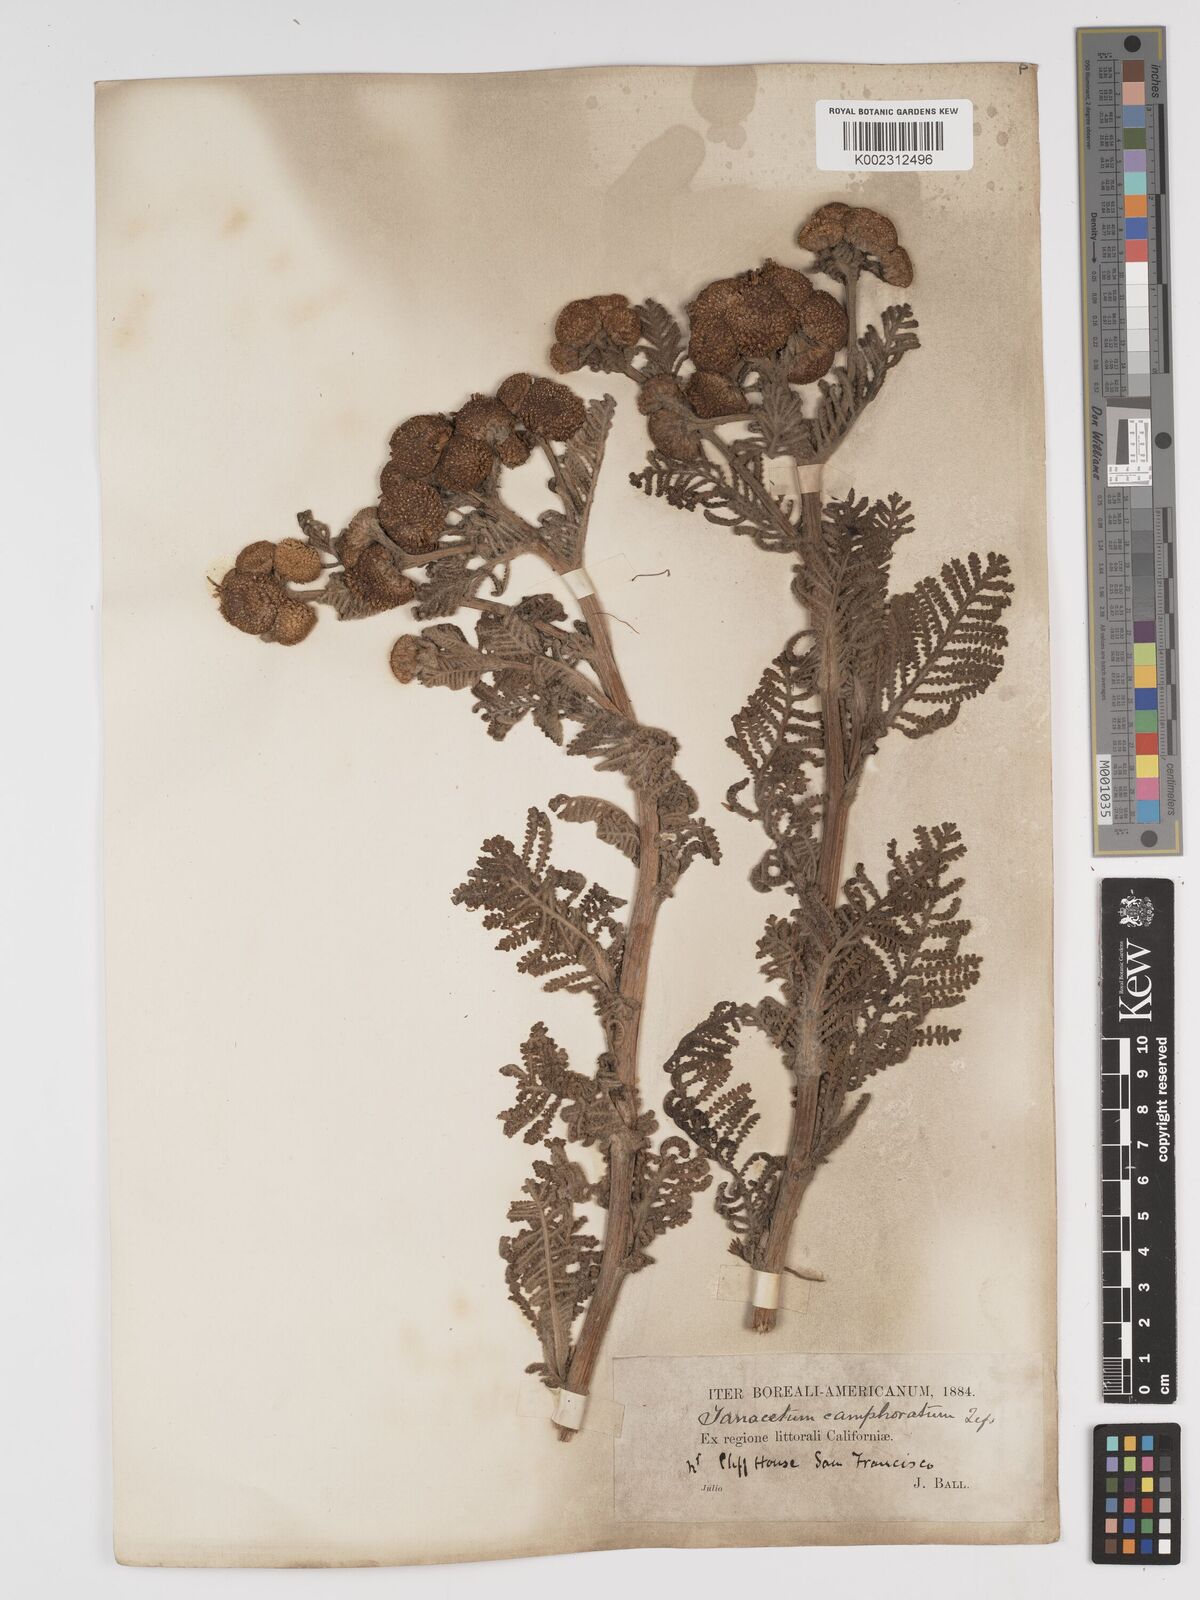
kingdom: Plantae
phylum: Tracheophyta
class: Magnoliopsida
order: Asterales
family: Asteraceae
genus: Tanacetum
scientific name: Tanacetum bipinnatum
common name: Dwarf tansy
